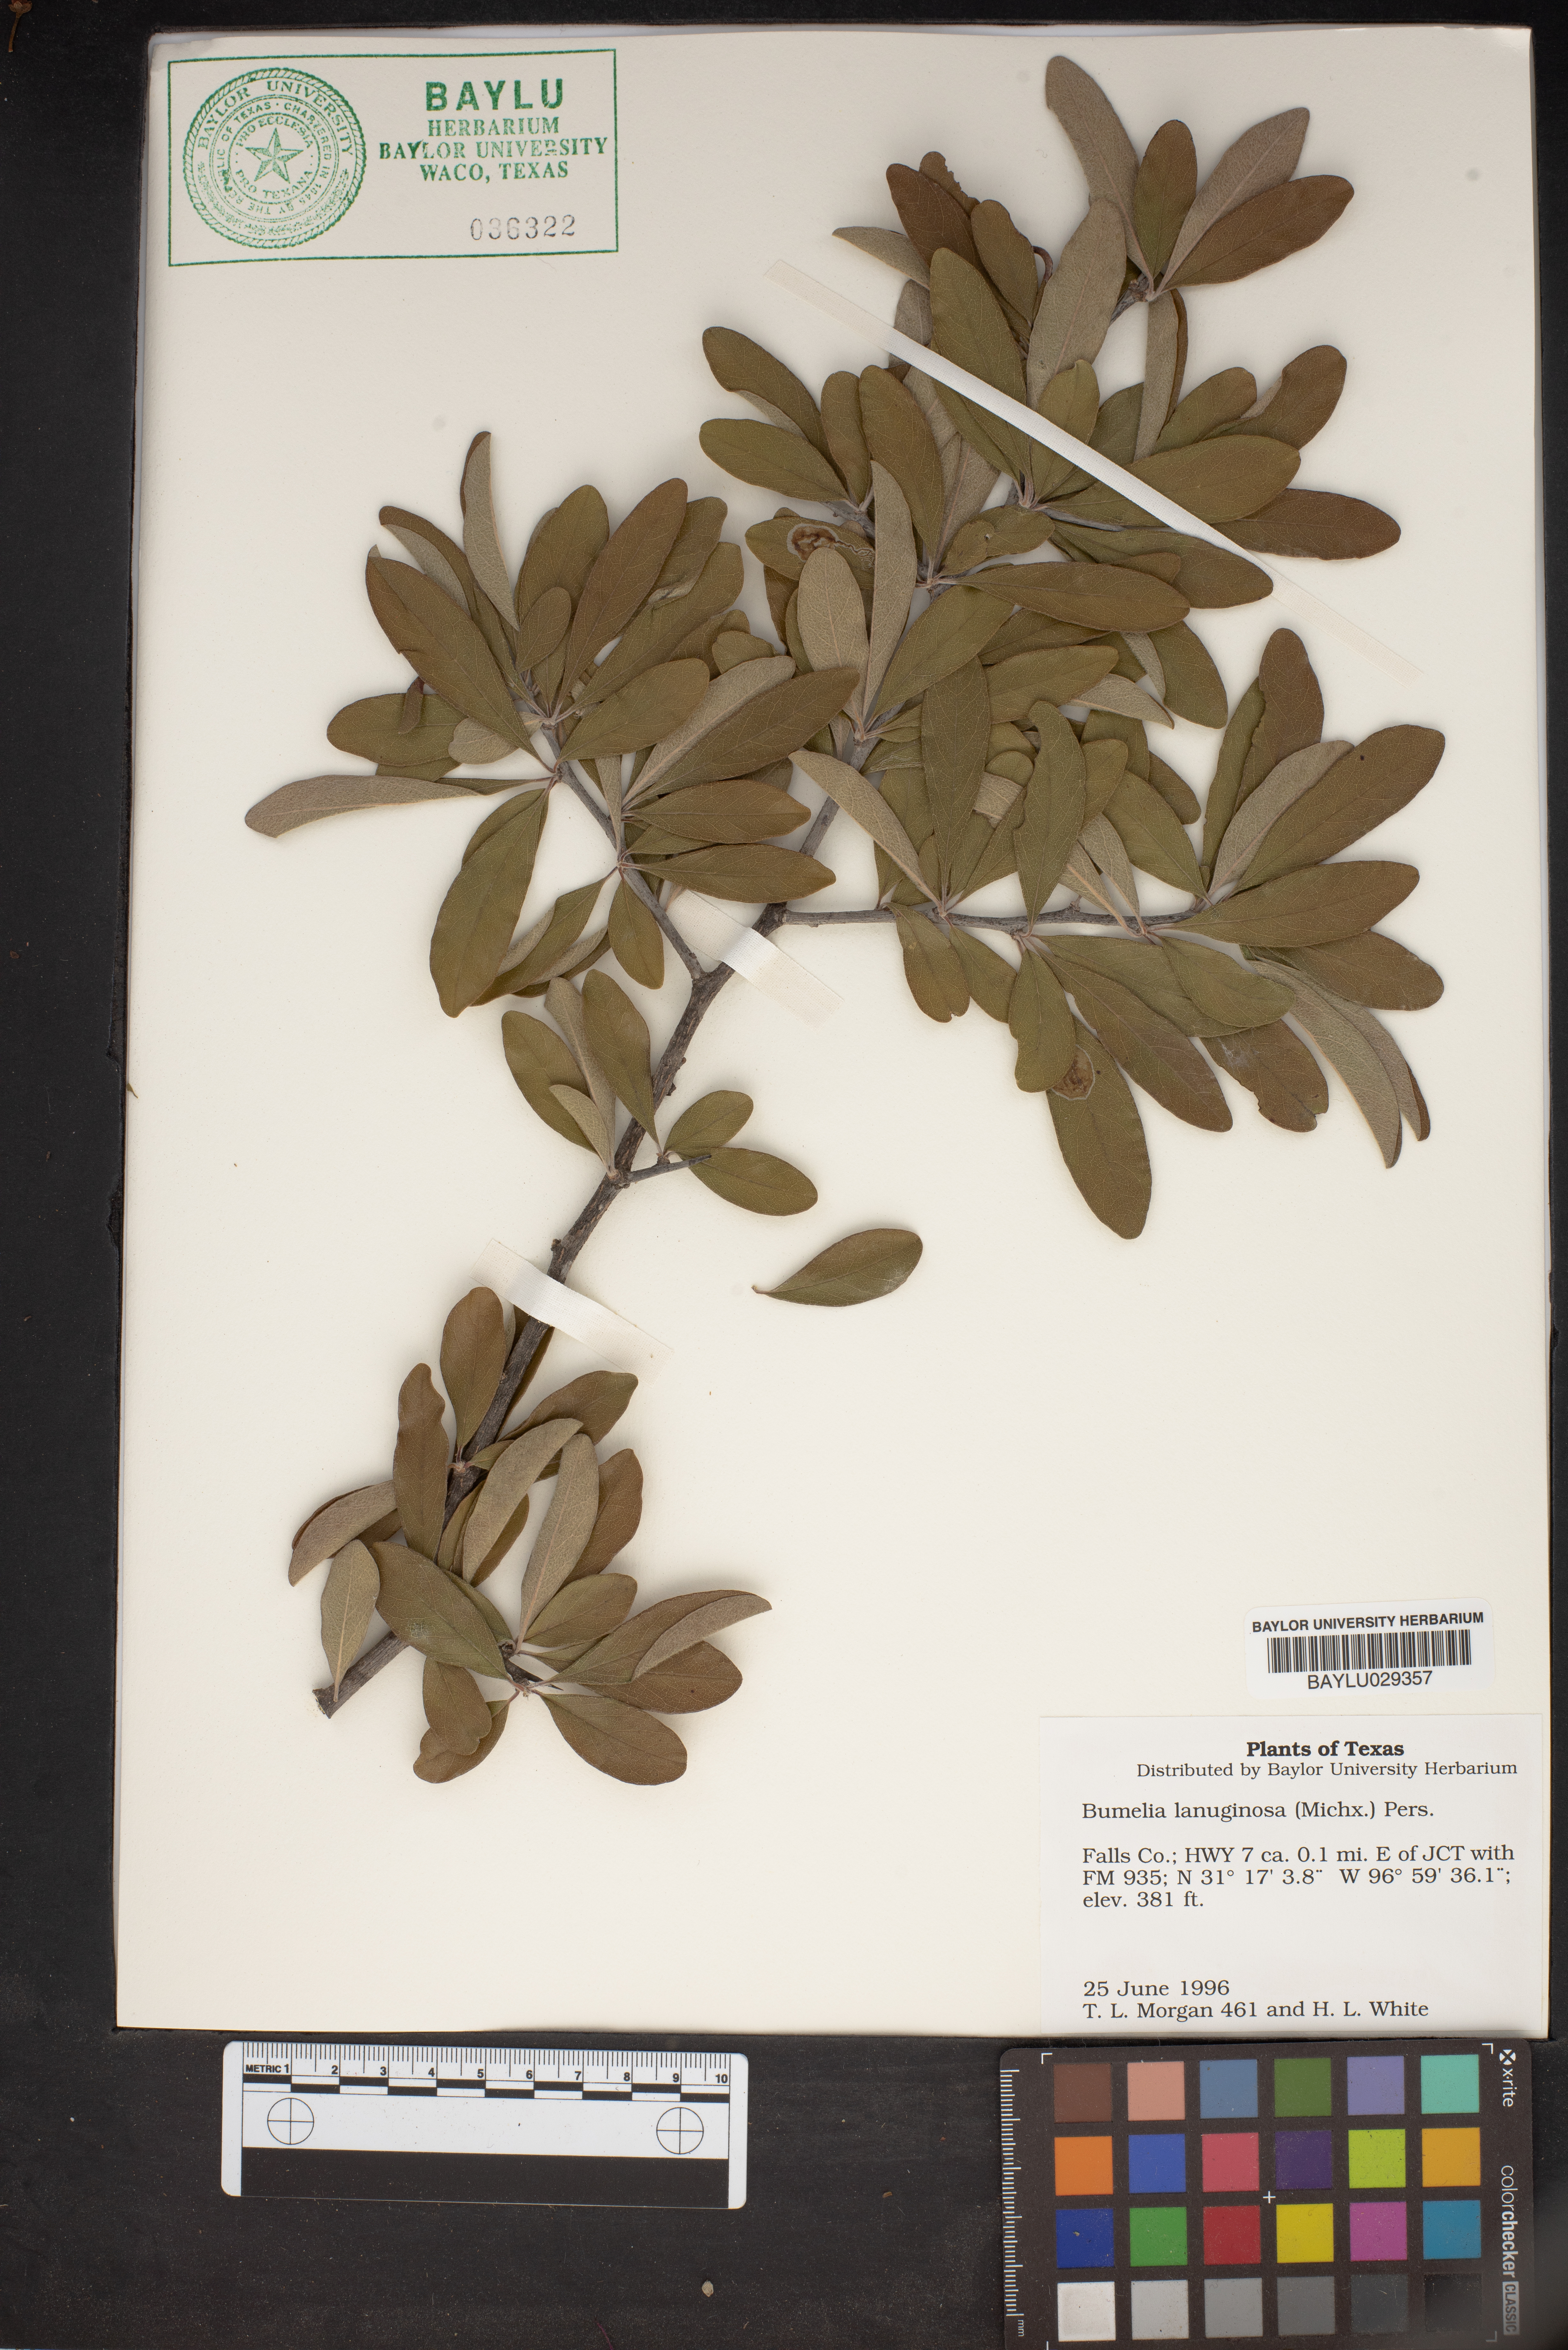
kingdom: Plantae
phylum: Tracheophyta
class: Magnoliopsida
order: Ericales
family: Sapotaceae
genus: Sideroxylon
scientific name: Sideroxylon lanuginosum
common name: Chittamwood
